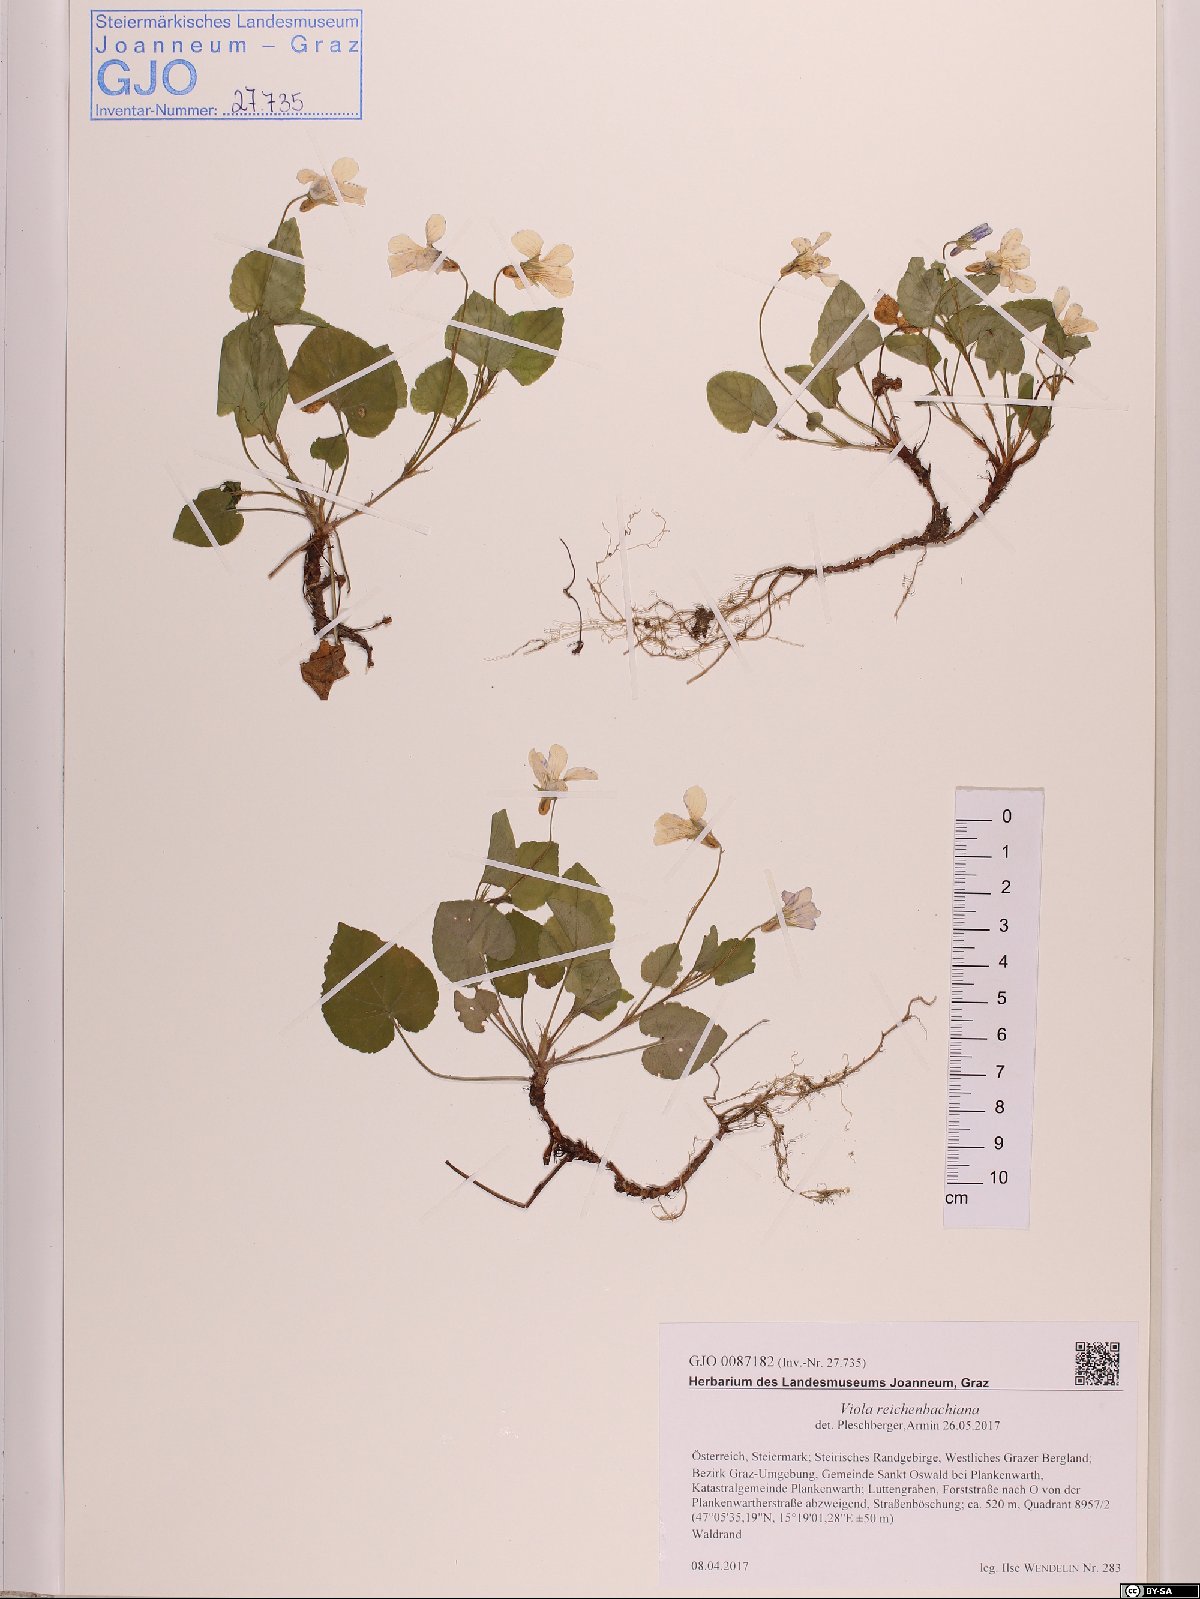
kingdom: Plantae
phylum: Tracheophyta
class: Magnoliopsida
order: Malpighiales
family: Violaceae
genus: Viola
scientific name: Viola reichenbachiana
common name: Early dog-violet
